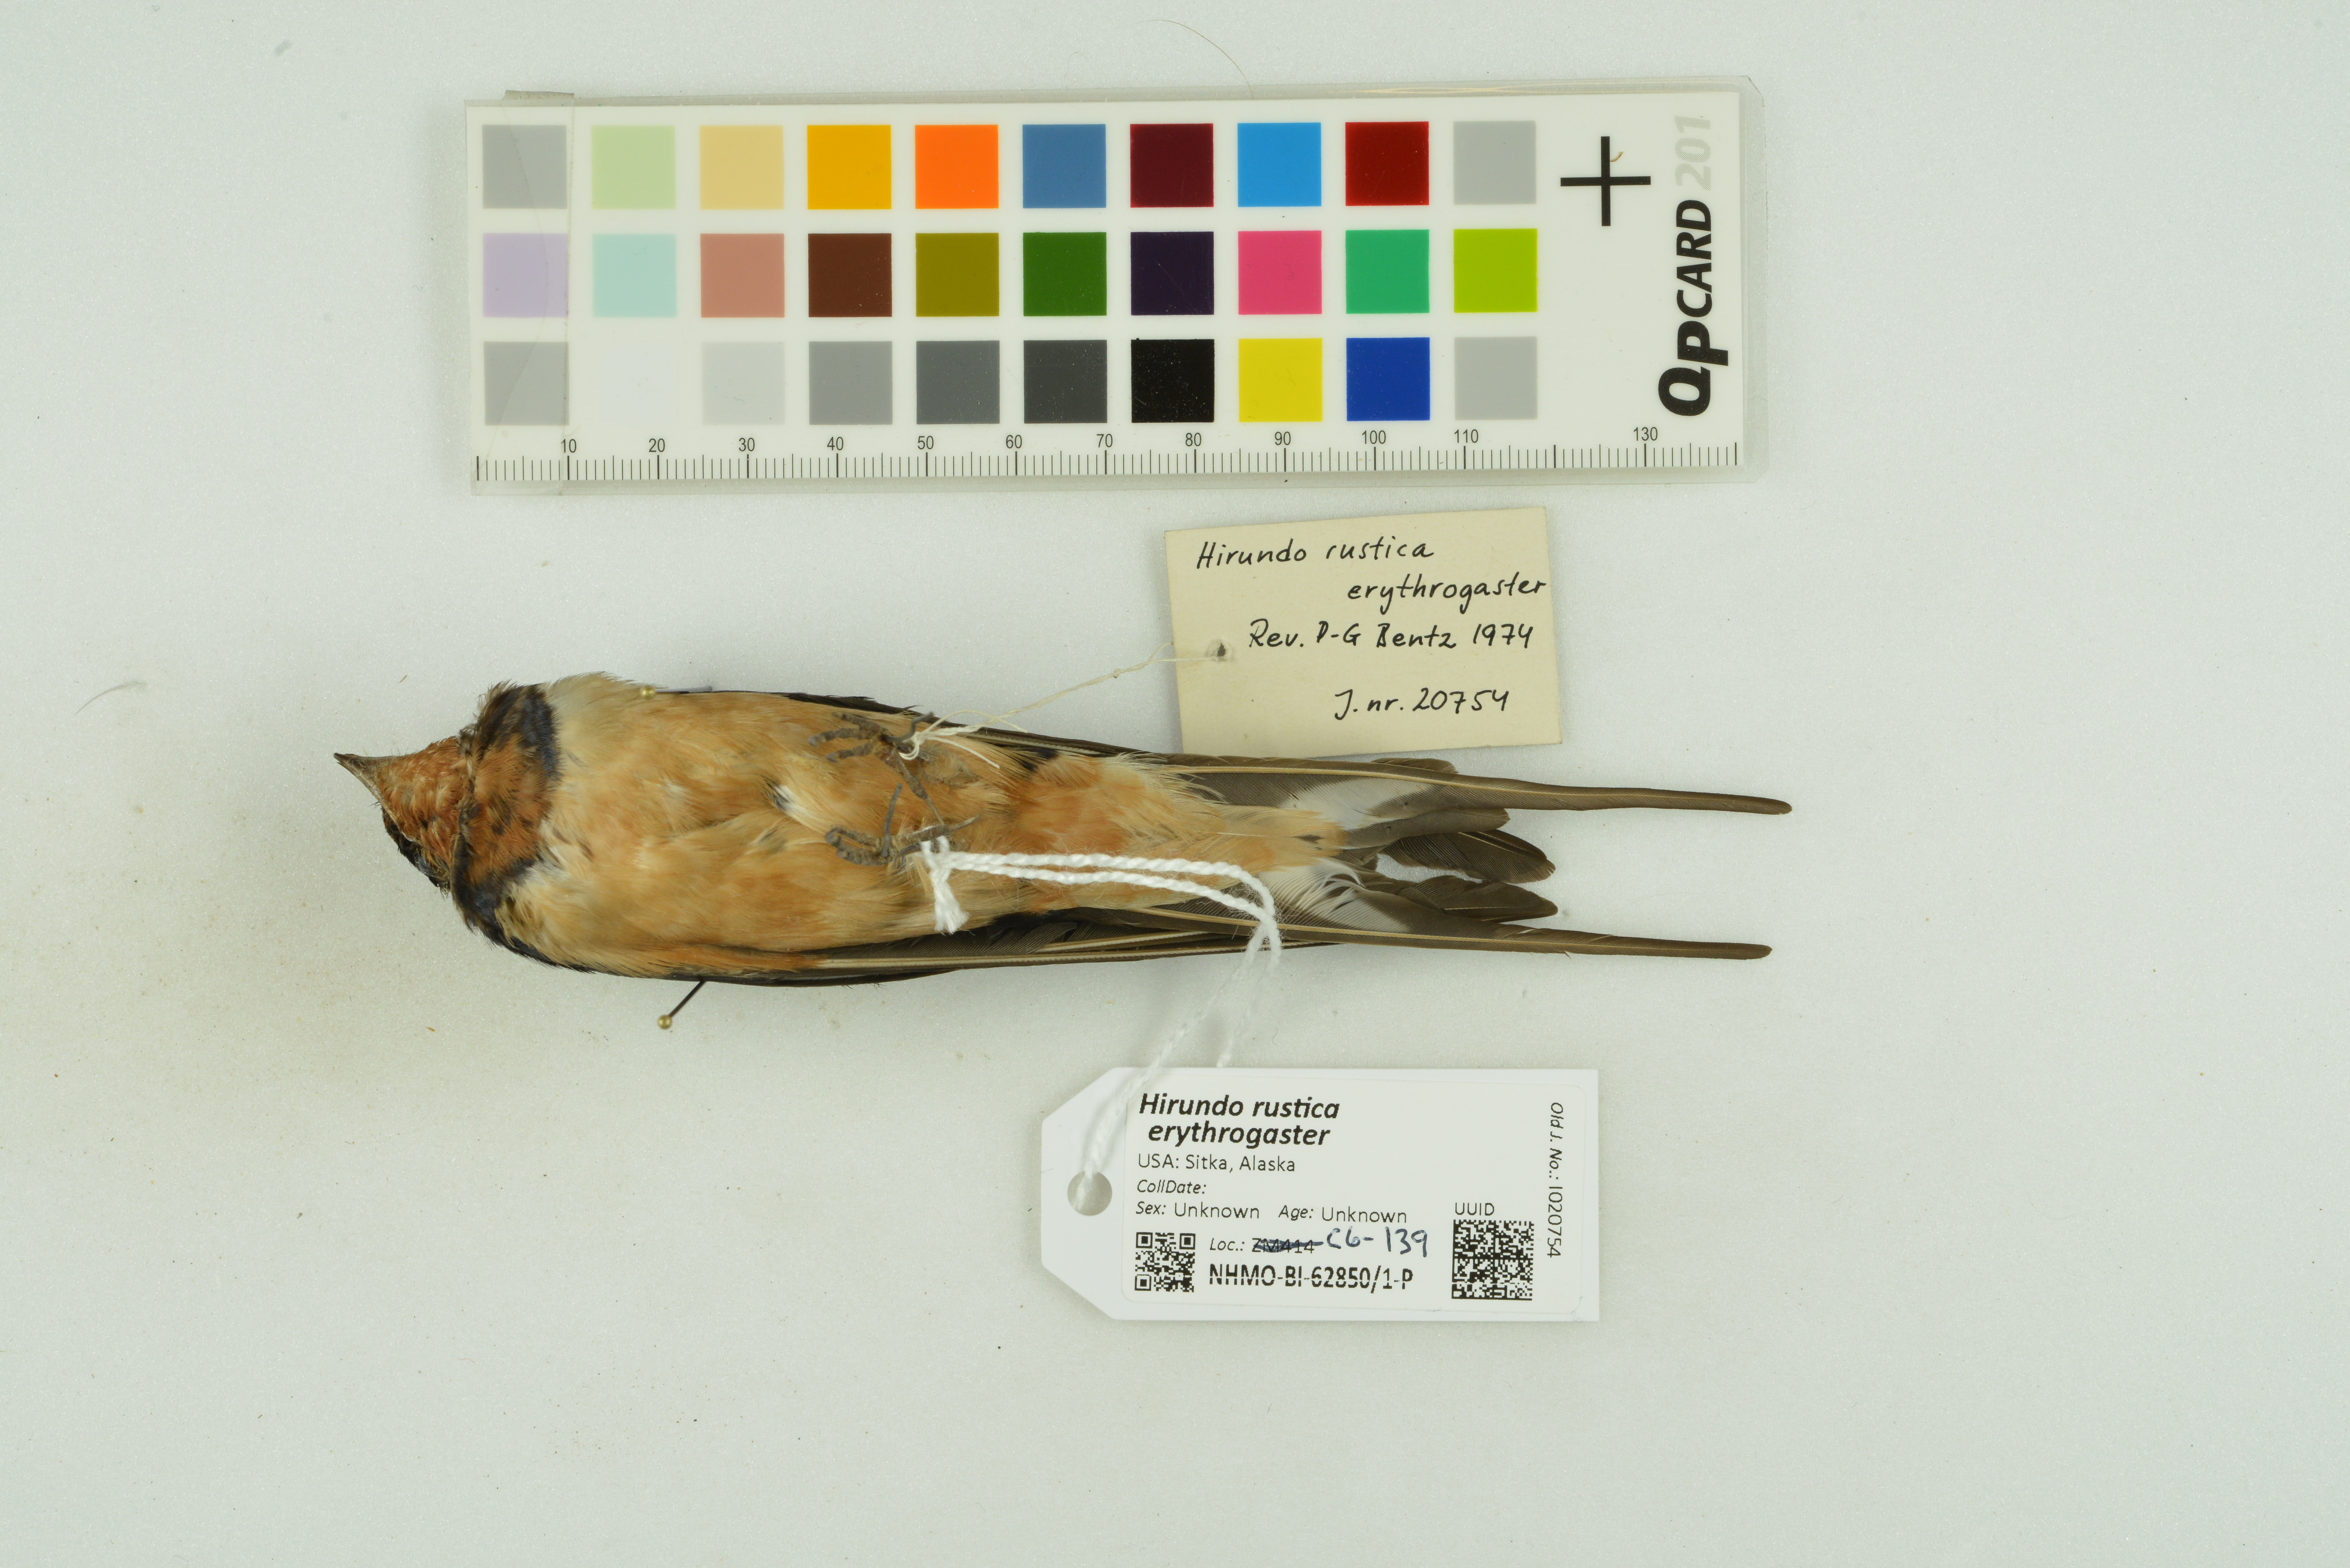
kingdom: Animalia
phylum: Chordata
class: Aves
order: Passeriformes
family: Hirundinidae
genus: Hirundo
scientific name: Hirundo rustica
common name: Barn swallow
